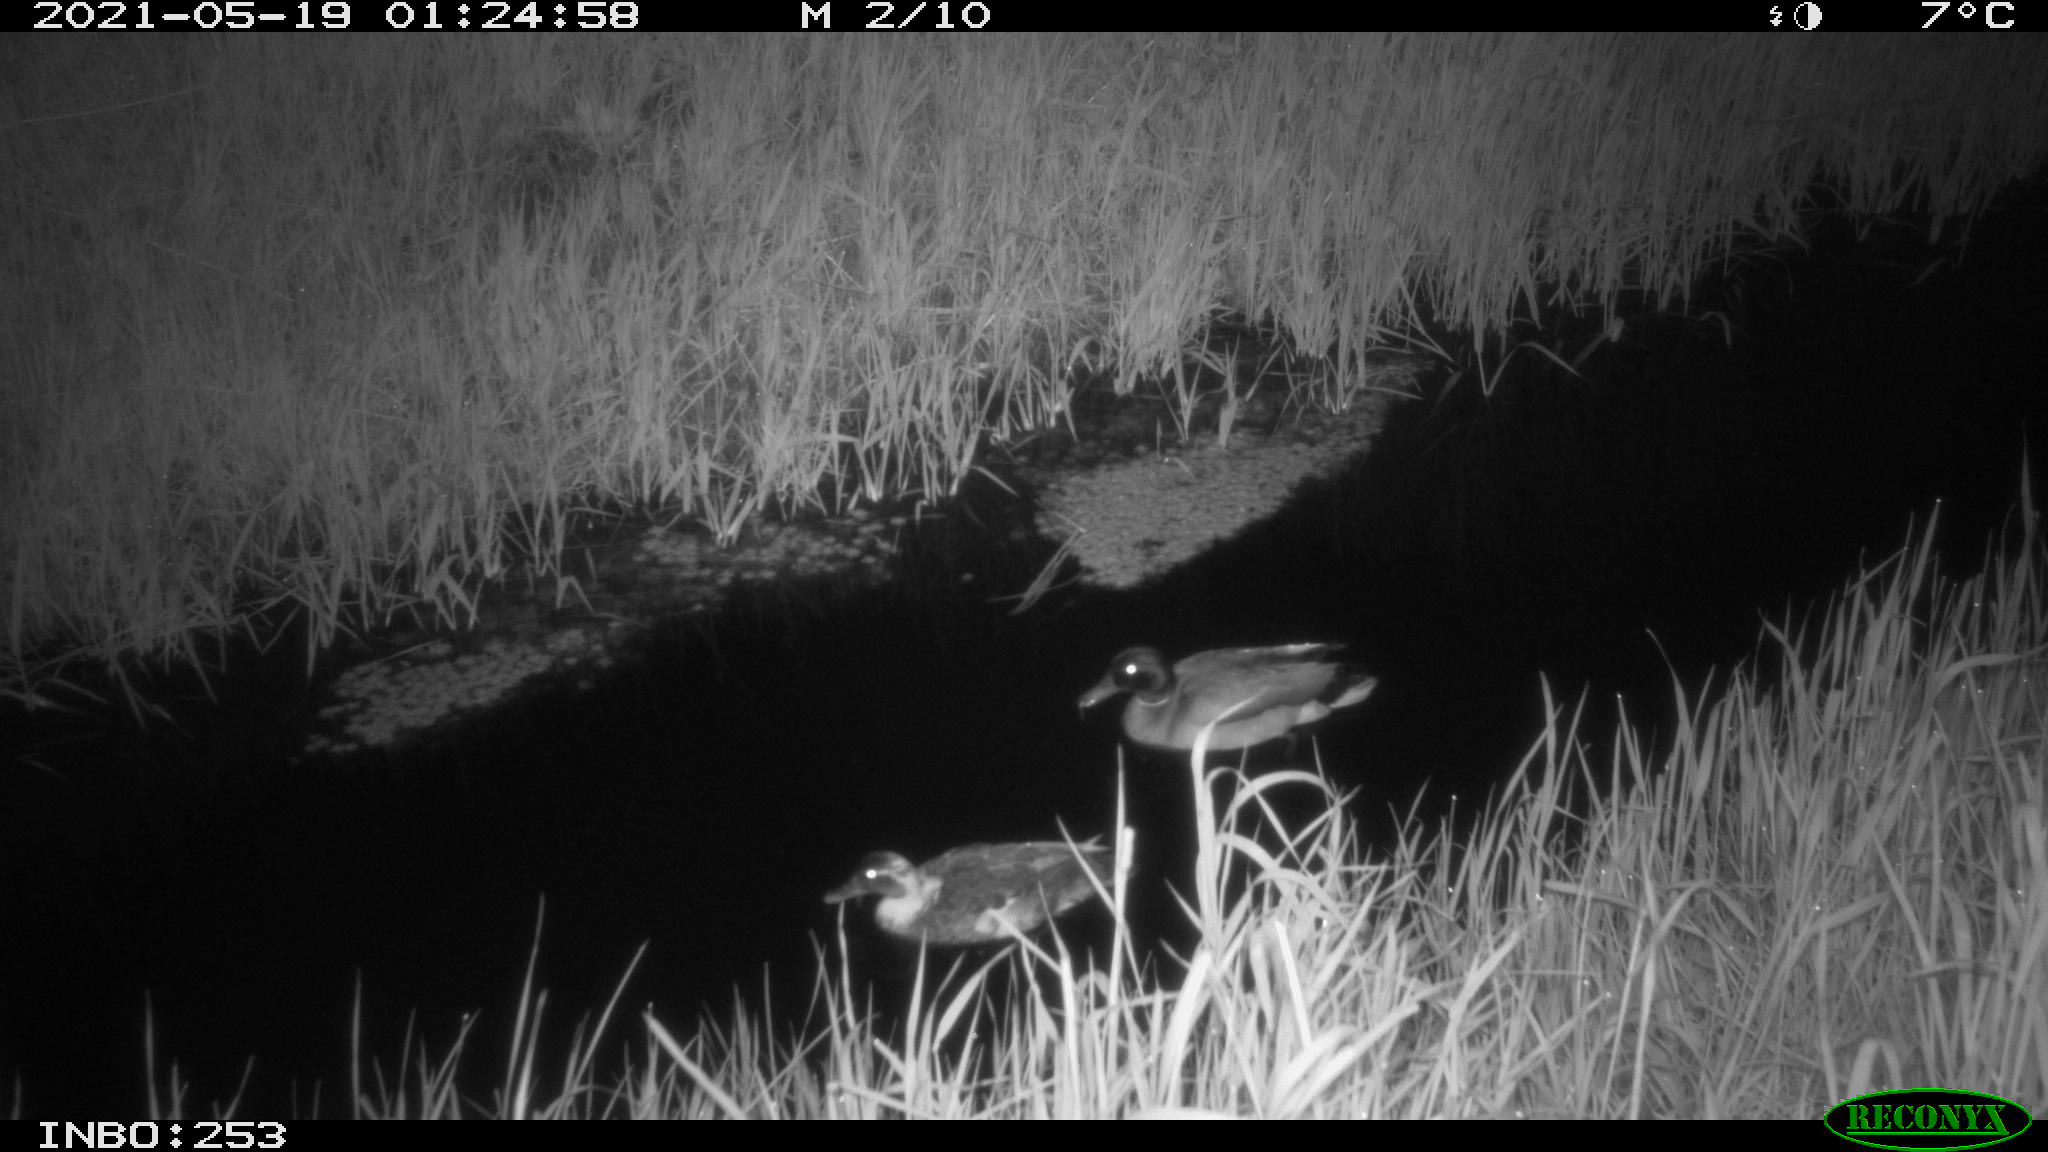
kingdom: Animalia
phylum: Chordata
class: Aves
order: Anseriformes
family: Anatidae
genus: Anas
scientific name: Anas platyrhynchos
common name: Mallard
